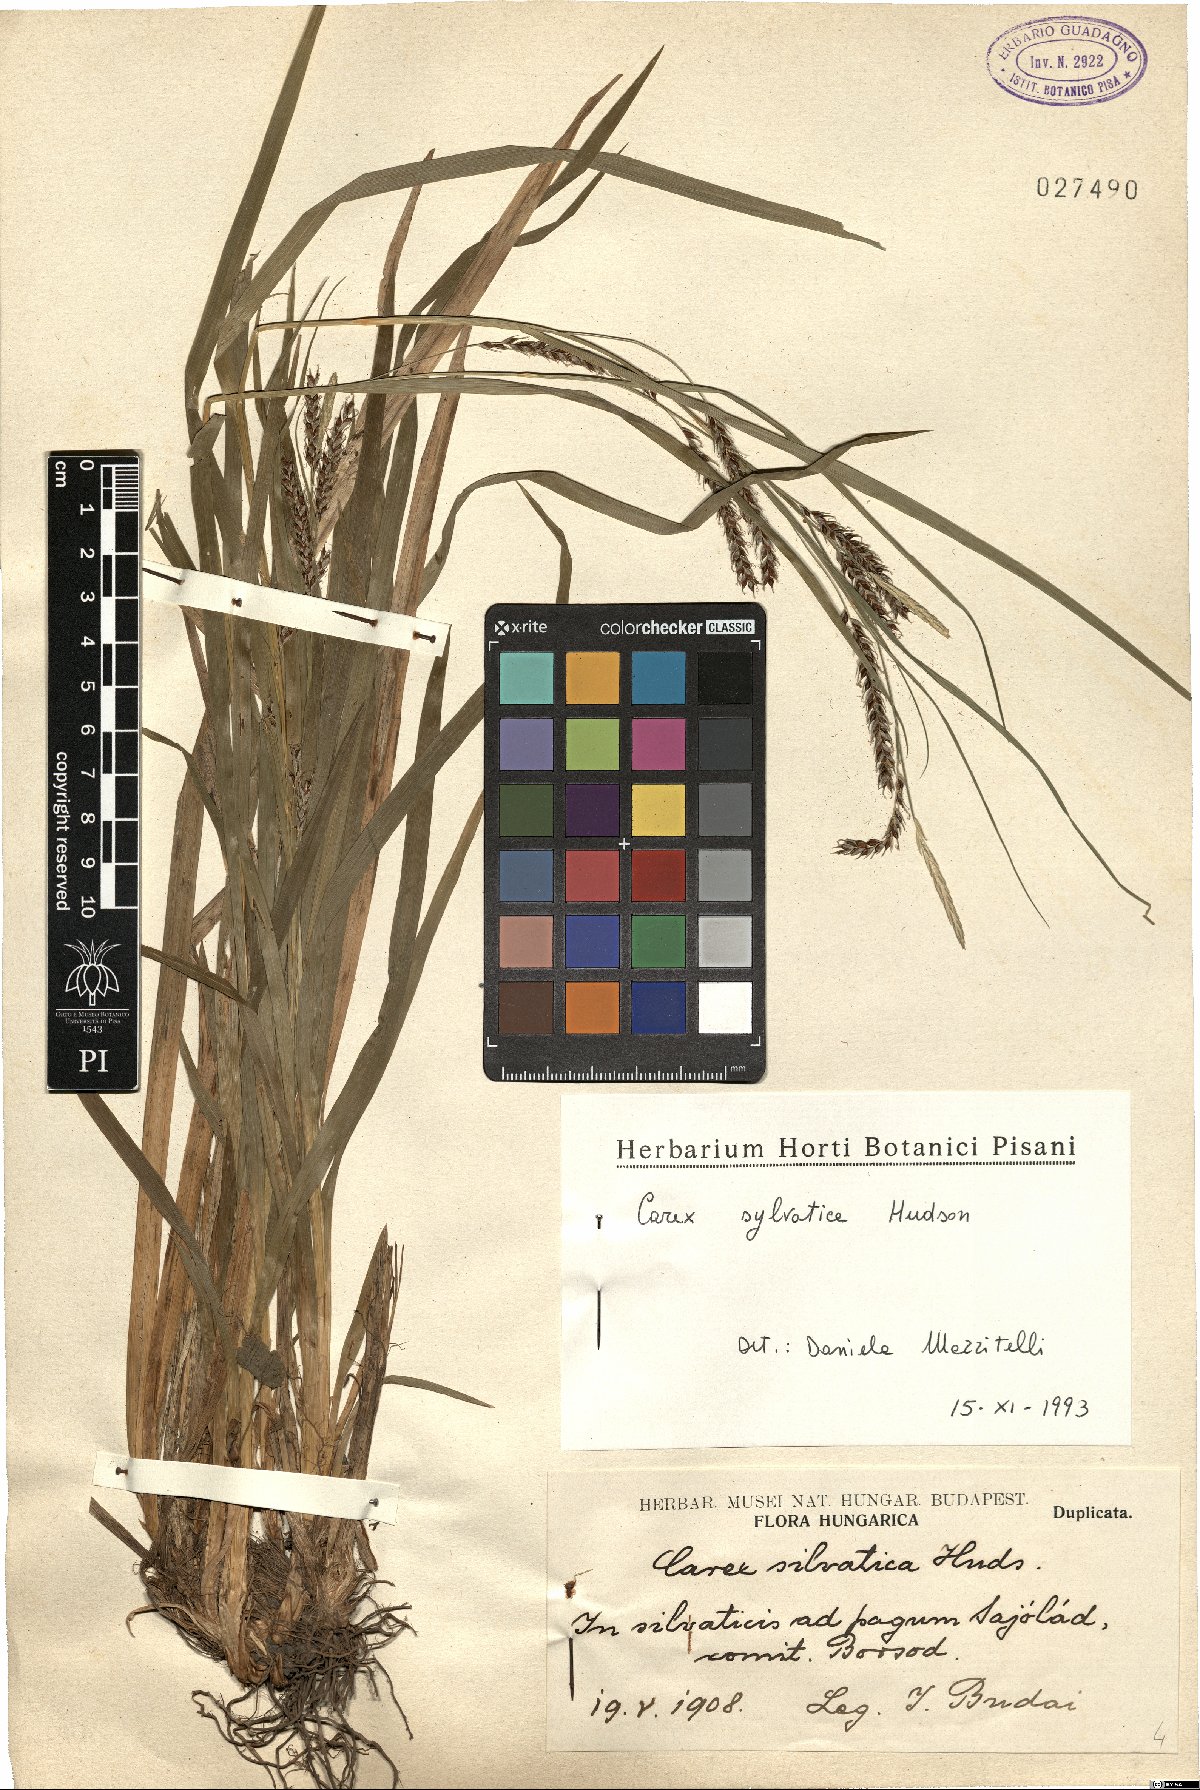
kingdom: Plantae
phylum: Tracheophyta
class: Liliopsida
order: Poales
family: Cyperaceae
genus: Carex
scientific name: Carex sylvatica
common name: Wood-sedge
